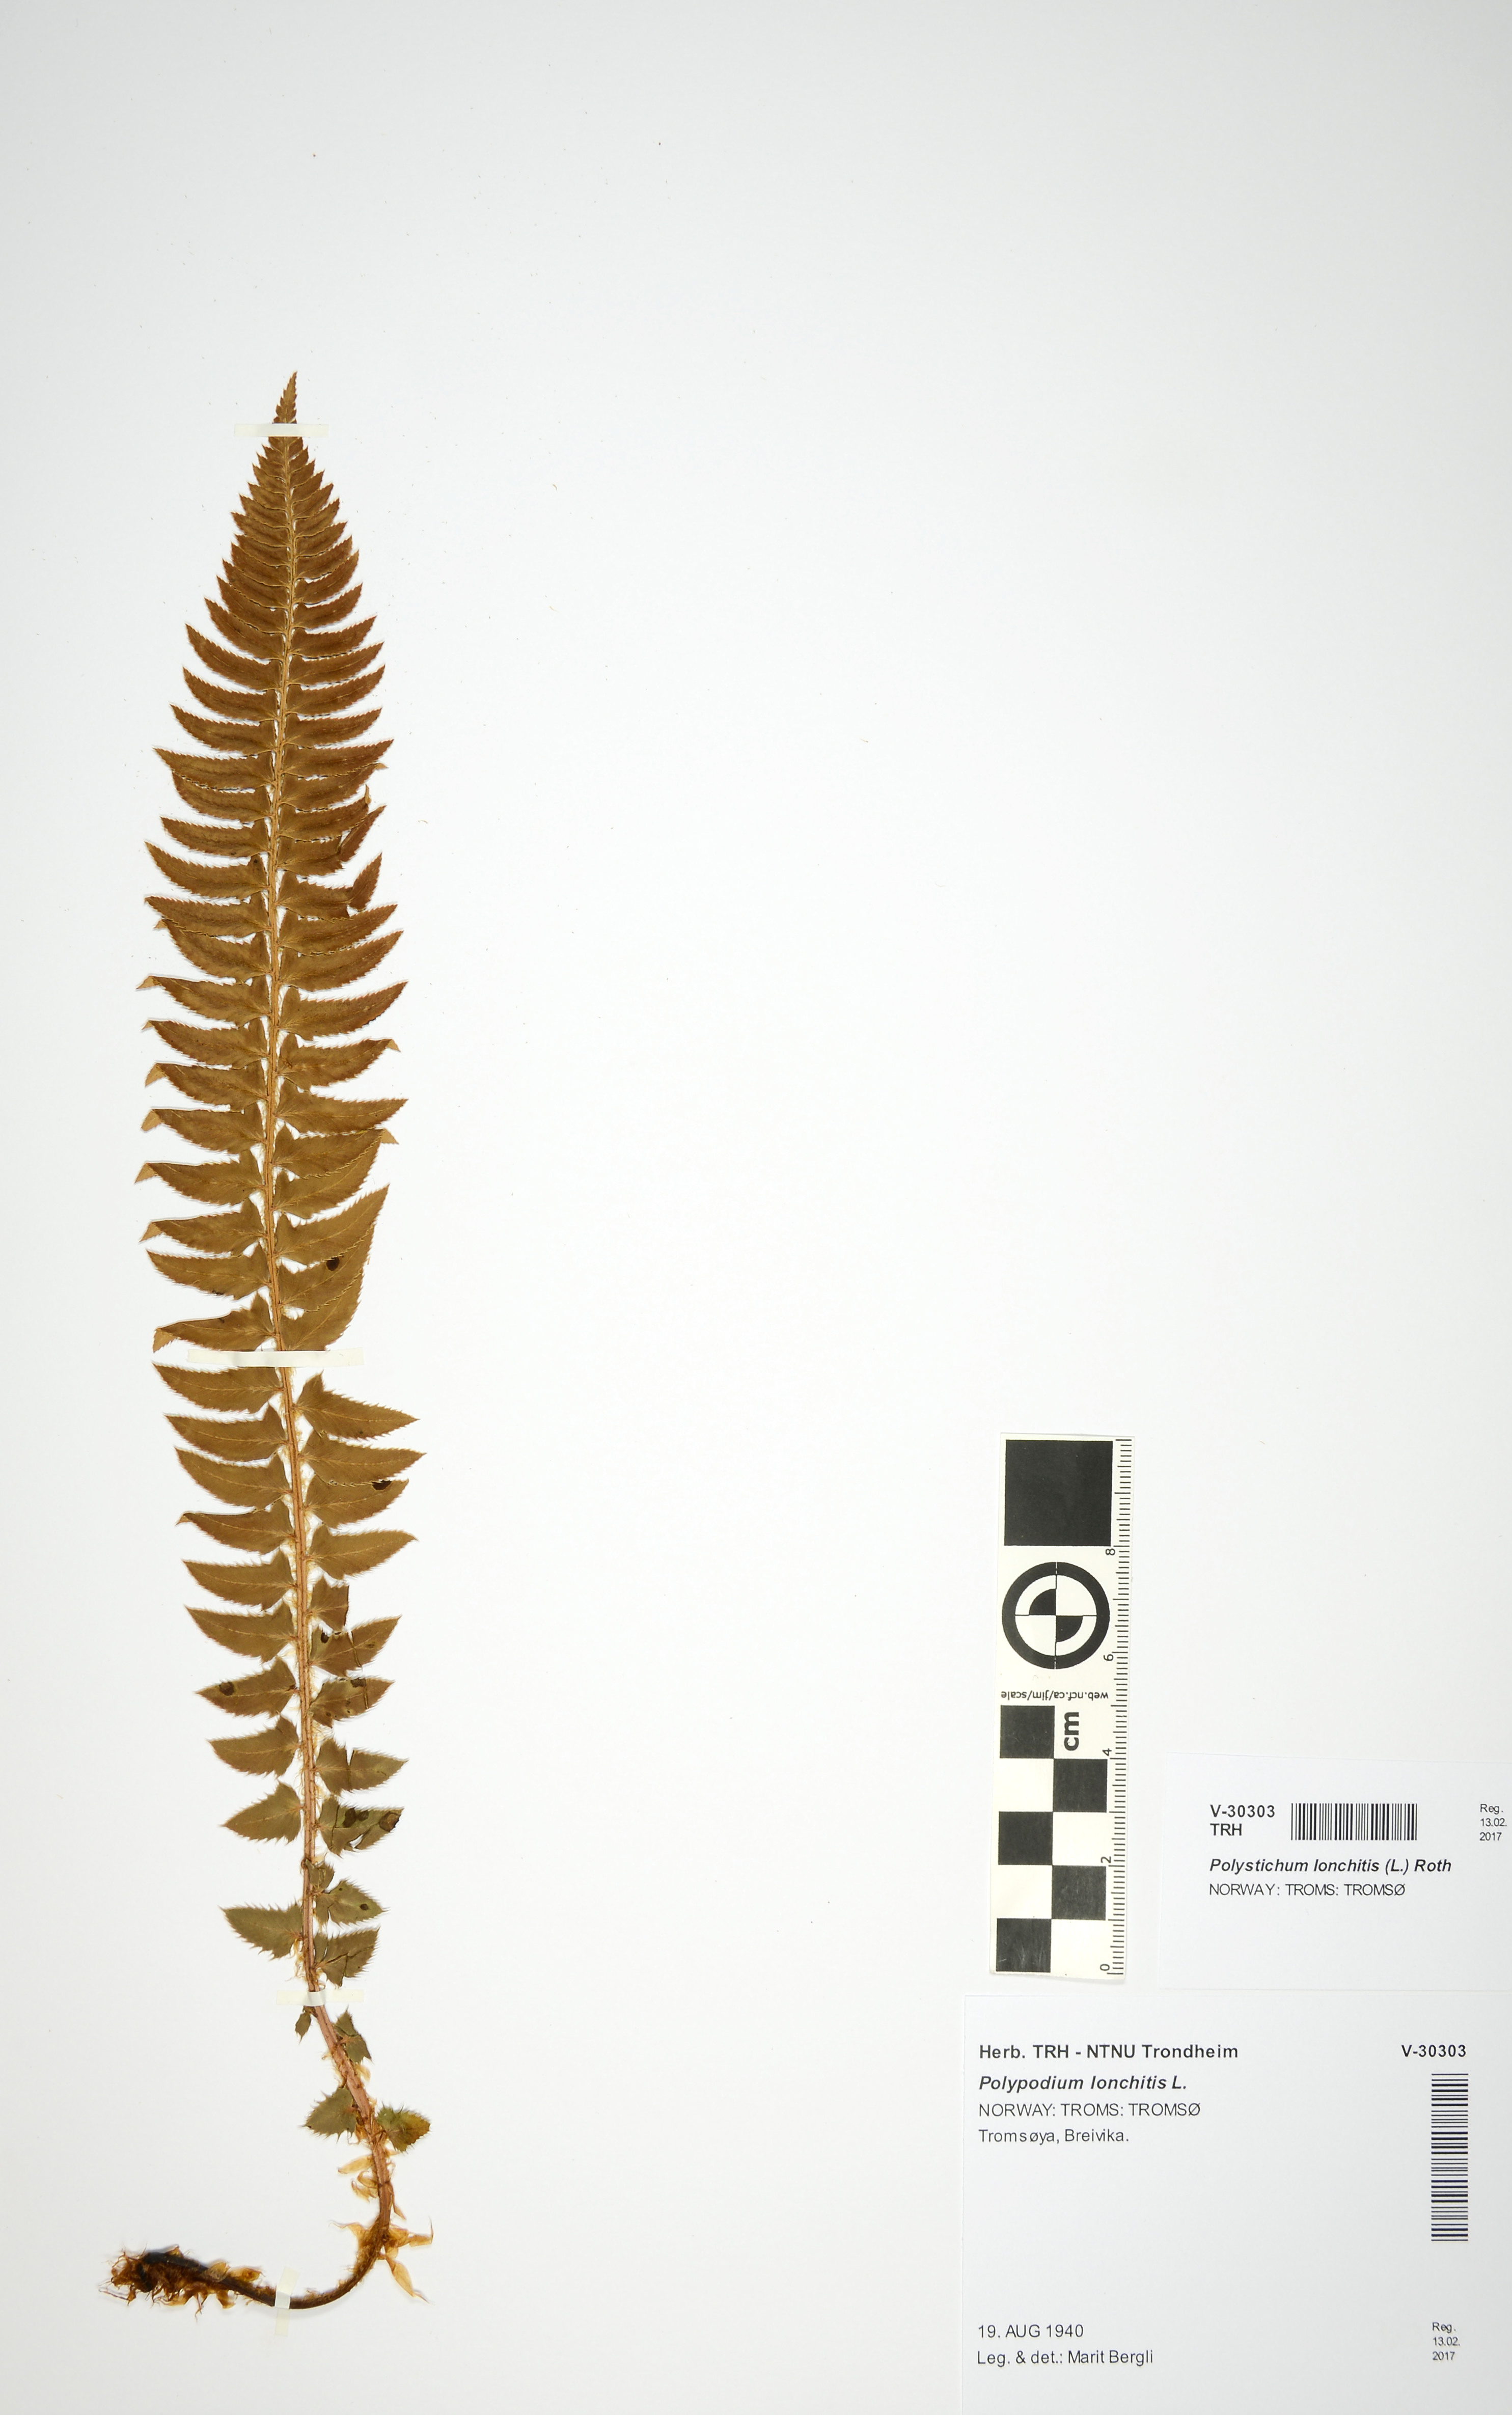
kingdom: Plantae
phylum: Tracheophyta
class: Polypodiopsida
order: Polypodiales
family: Dryopteridaceae
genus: Polystichum
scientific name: Polystichum lonchitis
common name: Holly fern
